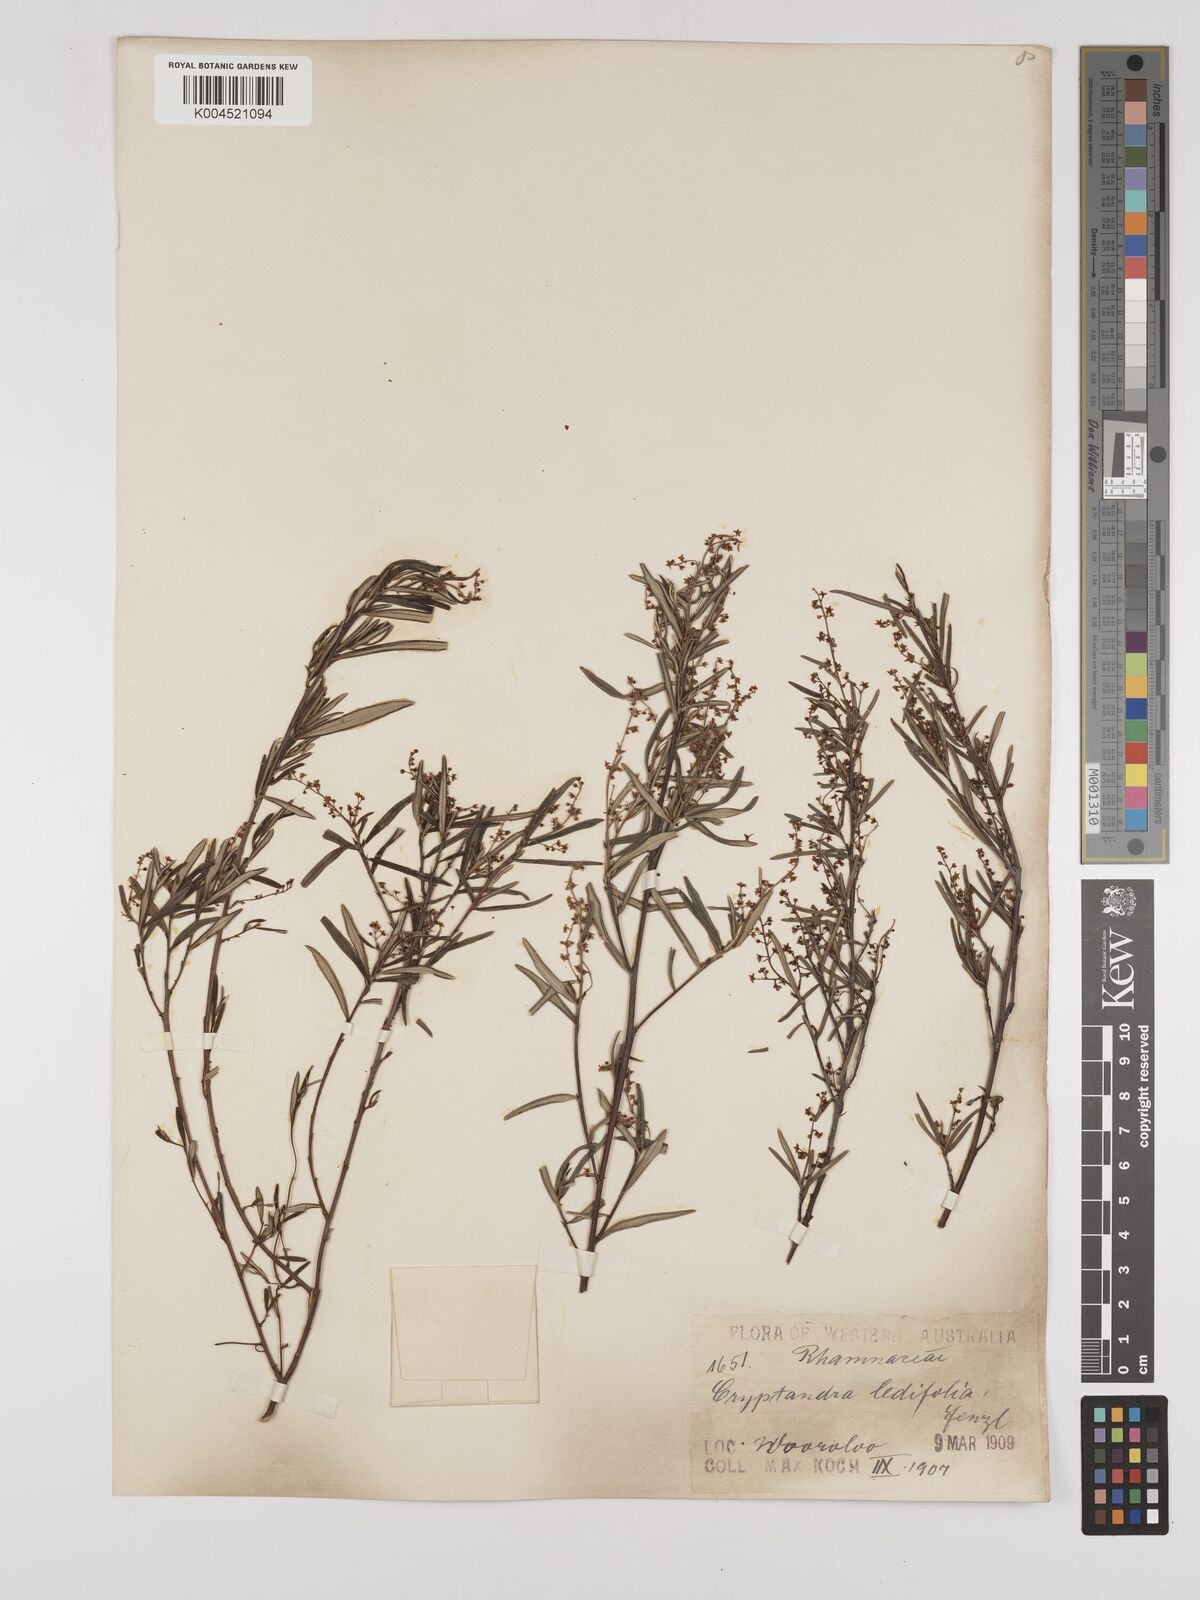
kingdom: Plantae
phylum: Tracheophyta
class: Magnoliopsida
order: Rosales
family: Rhamnaceae
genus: Trymalium
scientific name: Trymalium ledifolium
